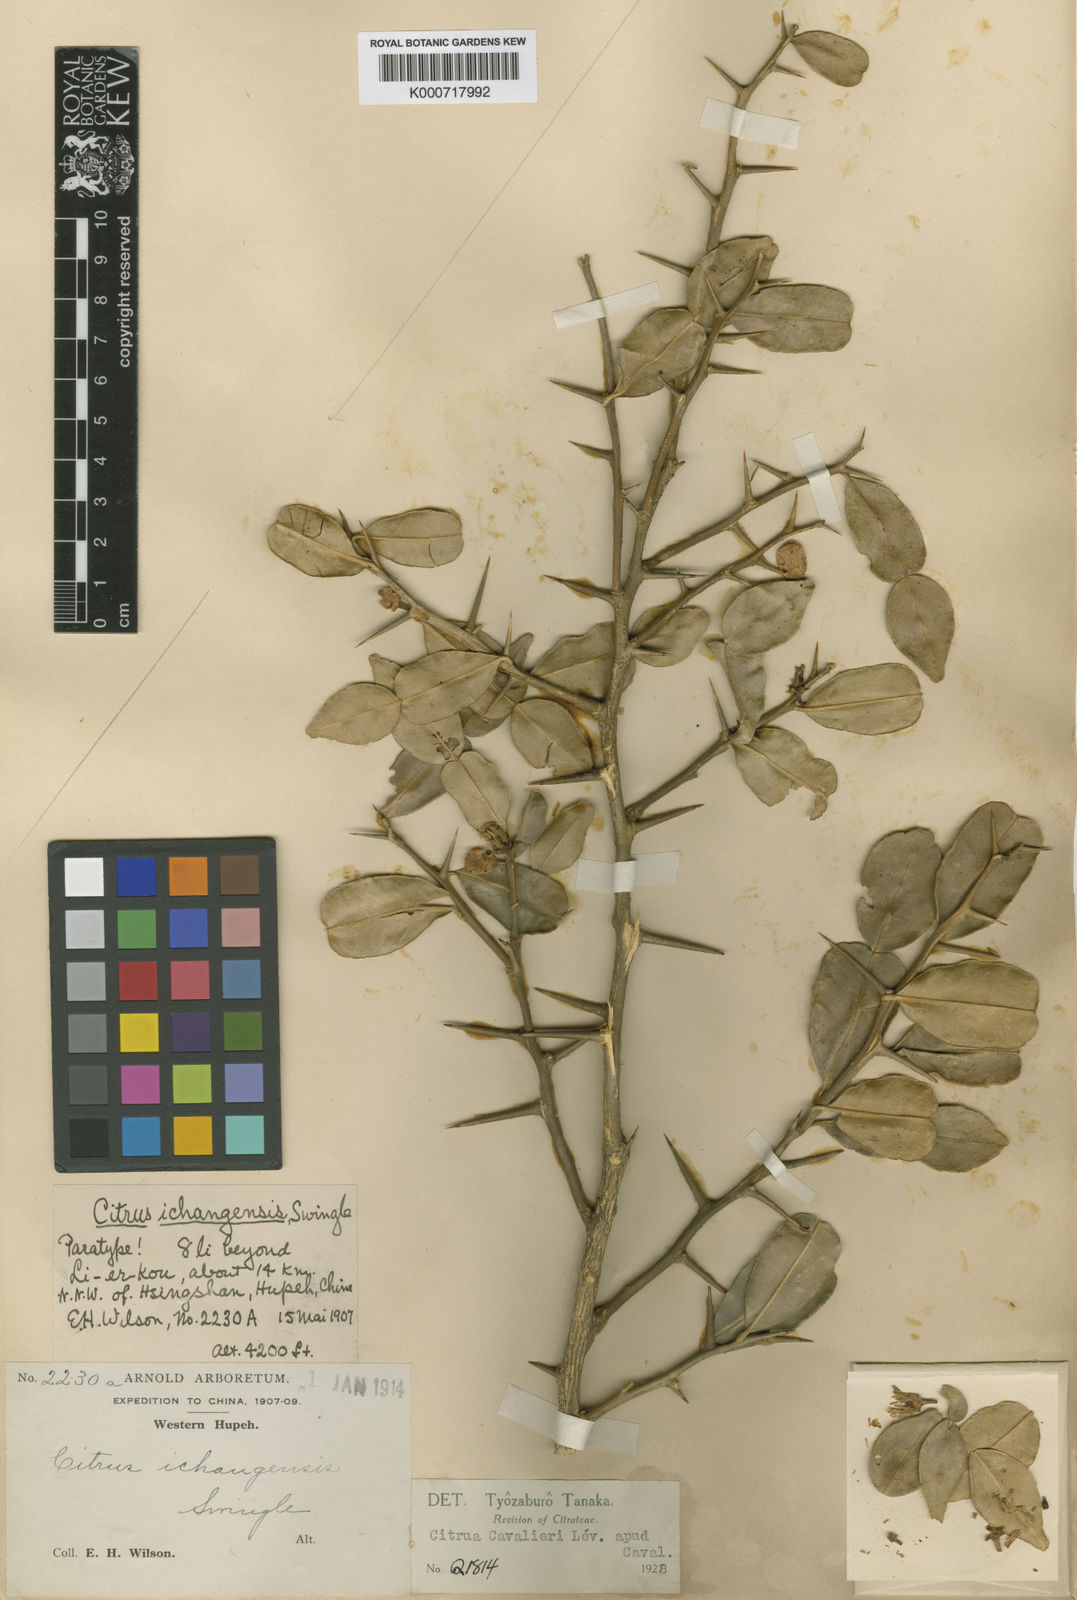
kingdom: Plantae
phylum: Tracheophyta
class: Magnoliopsida
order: Sapindales
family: Rutaceae
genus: Citrus
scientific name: Citrus cavaleriei
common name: Ichang-papeda
